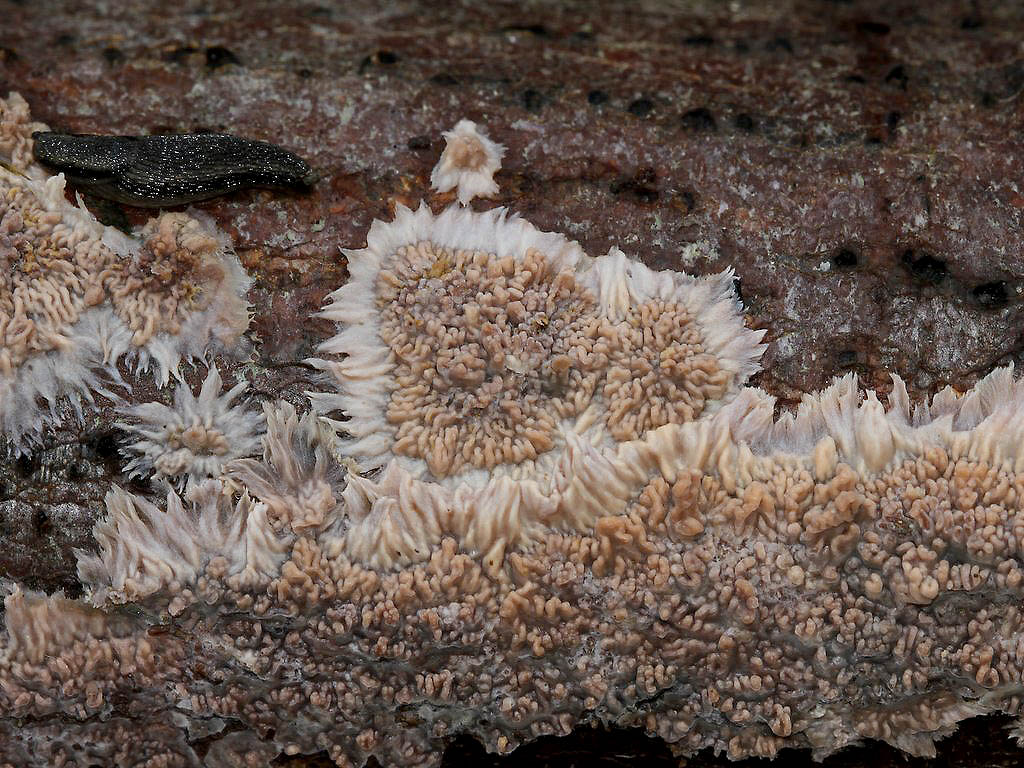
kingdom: Fungi
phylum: Basidiomycota
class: Agaricomycetes
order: Polyporales
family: Meruliaceae
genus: Phlebia
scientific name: Phlebia radiata
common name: stråle-åresvamp
